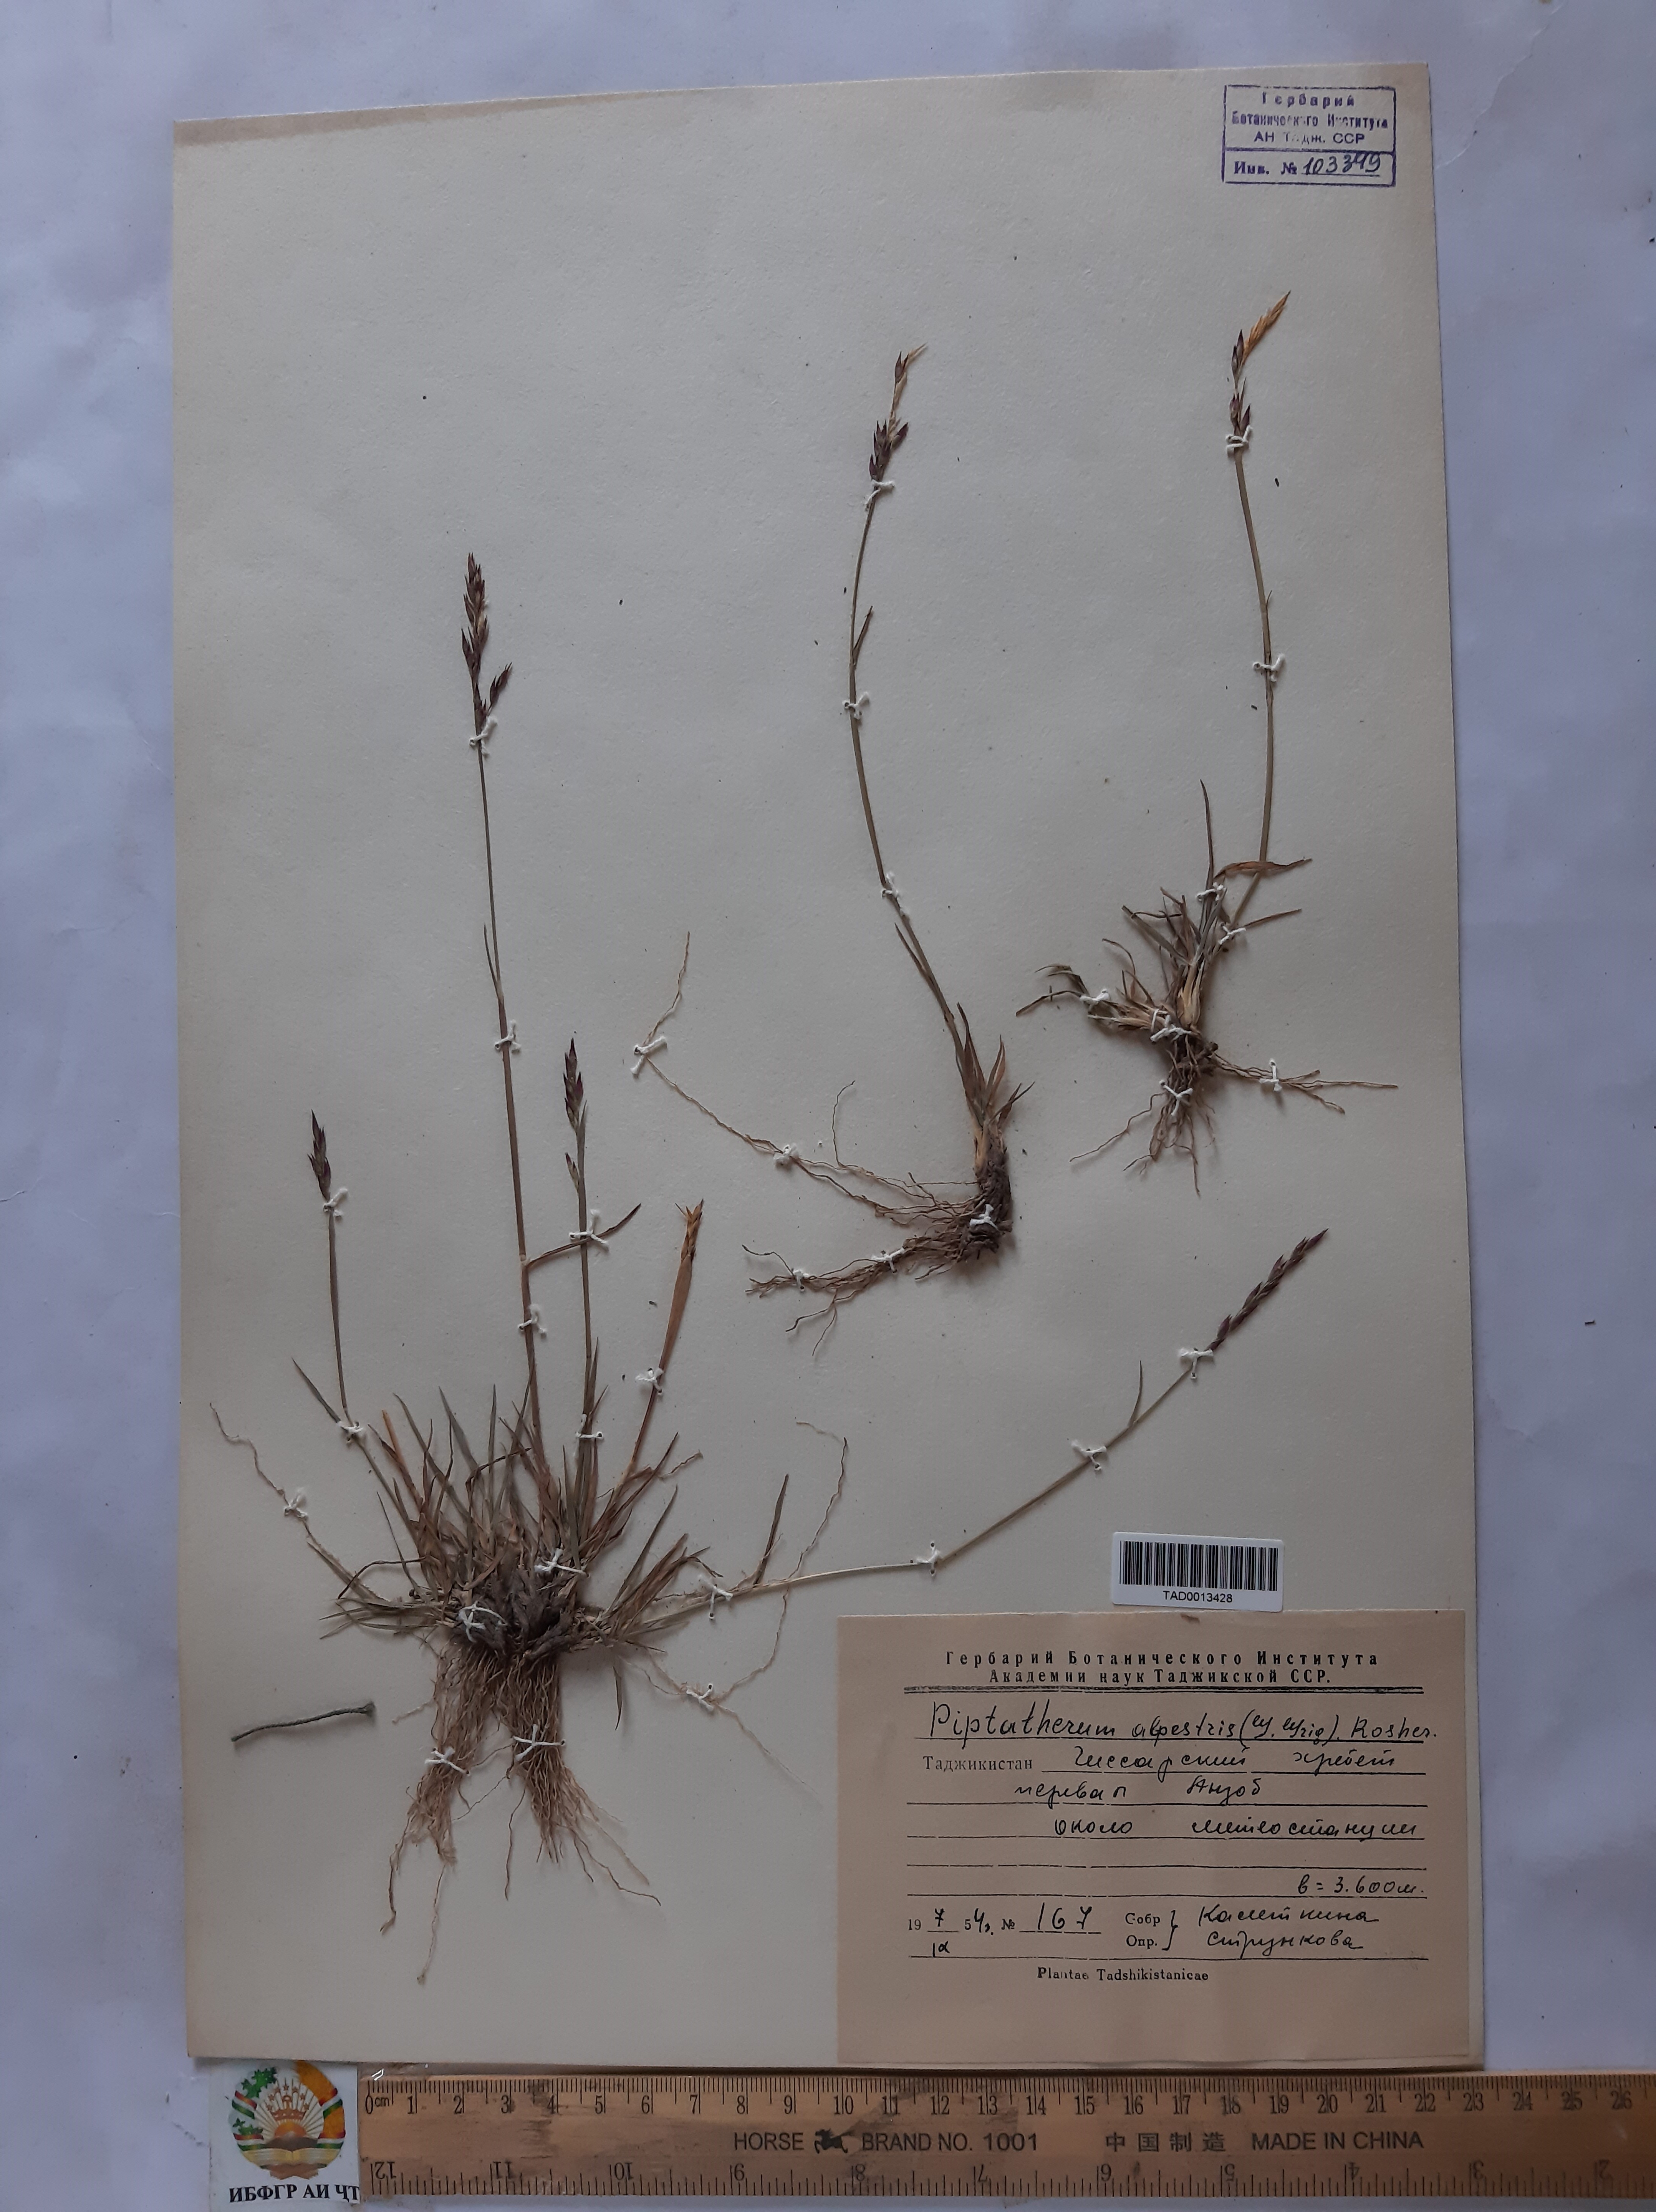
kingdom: Plantae
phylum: Tracheophyta
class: Liliopsida
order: Poales
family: Poaceae
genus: Piptatherum
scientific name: Piptatherum alpestre
